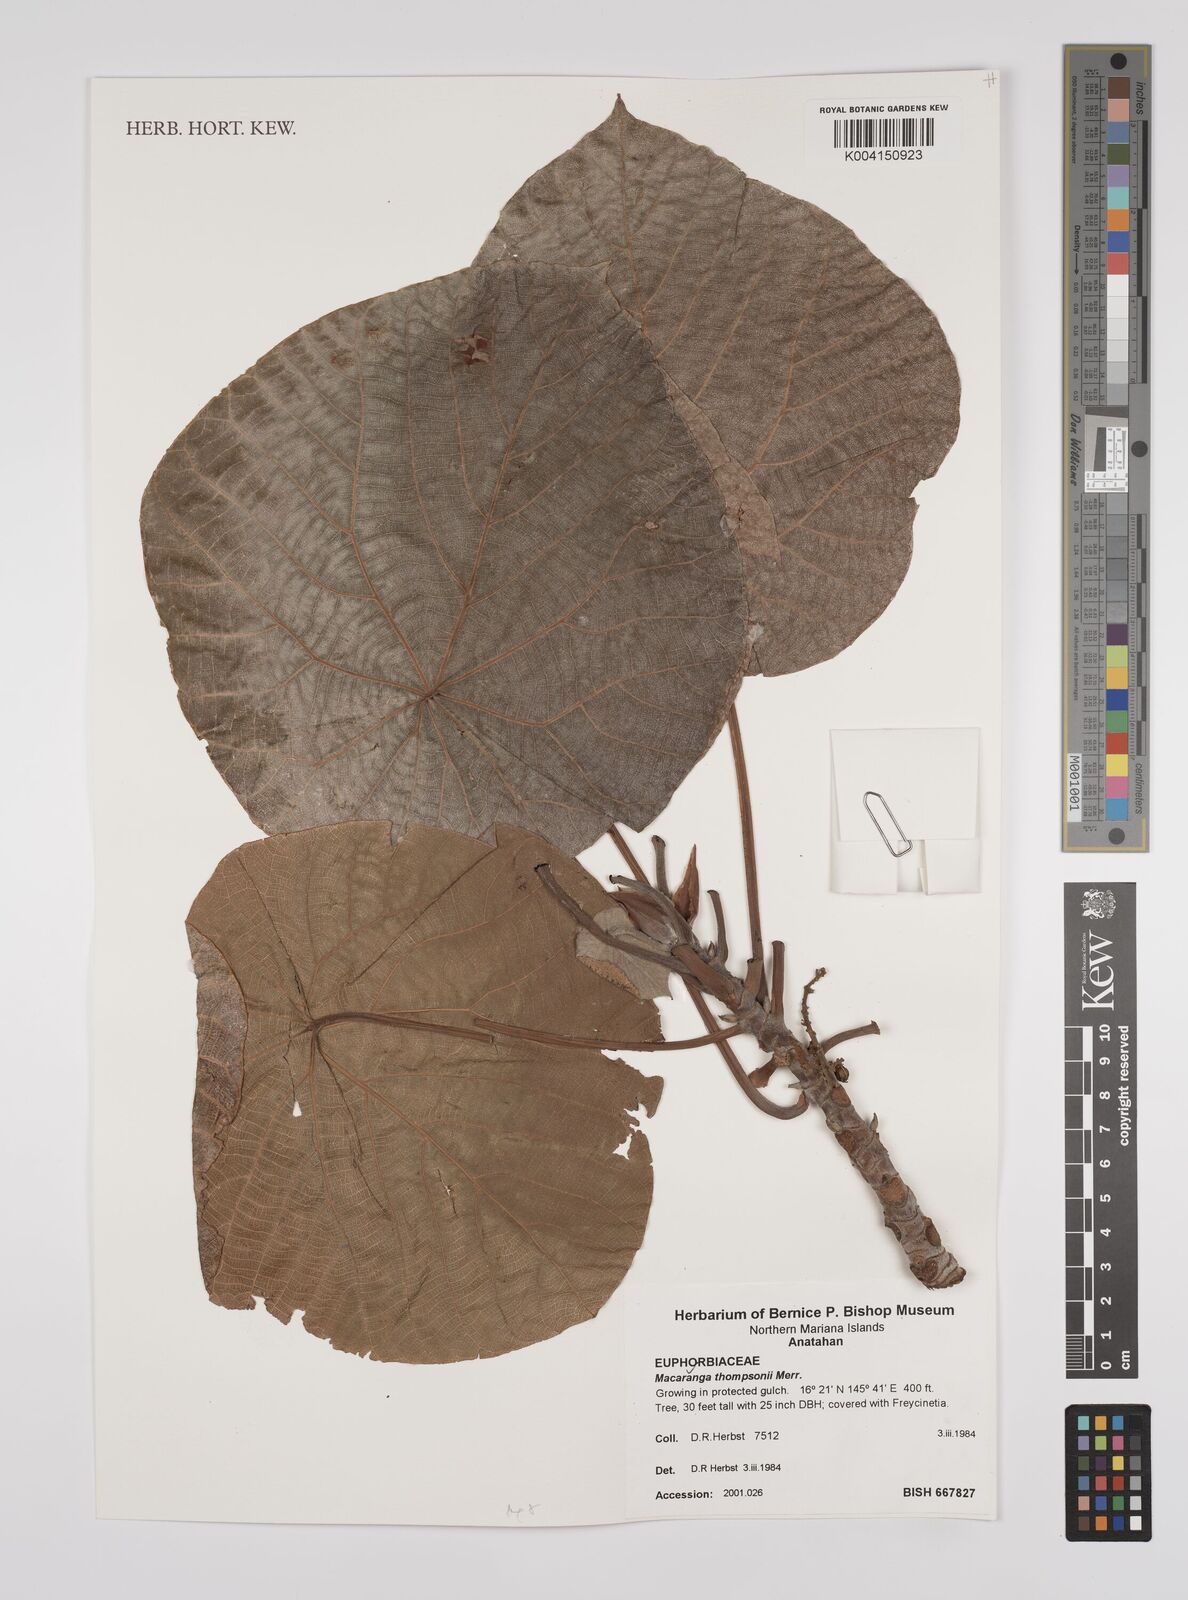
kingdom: Plantae
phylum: Tracheophyta
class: Magnoliopsida
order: Malpighiales
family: Euphorbiaceae
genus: Macaranga
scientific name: Macaranga thompsonii
